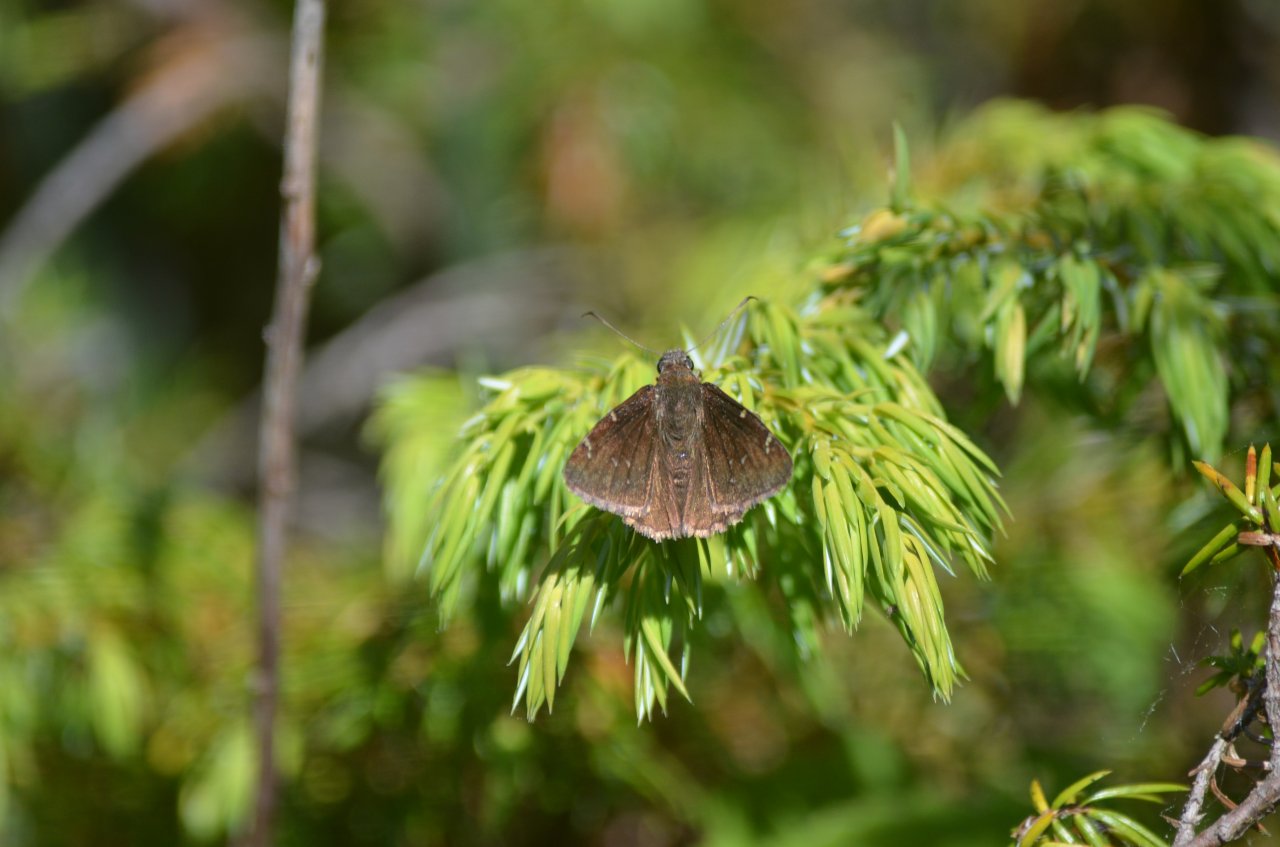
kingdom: Animalia
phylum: Arthropoda
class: Insecta
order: Lepidoptera
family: Hesperiidae
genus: Autochton
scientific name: Autochton
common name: Northern Cloudywing
